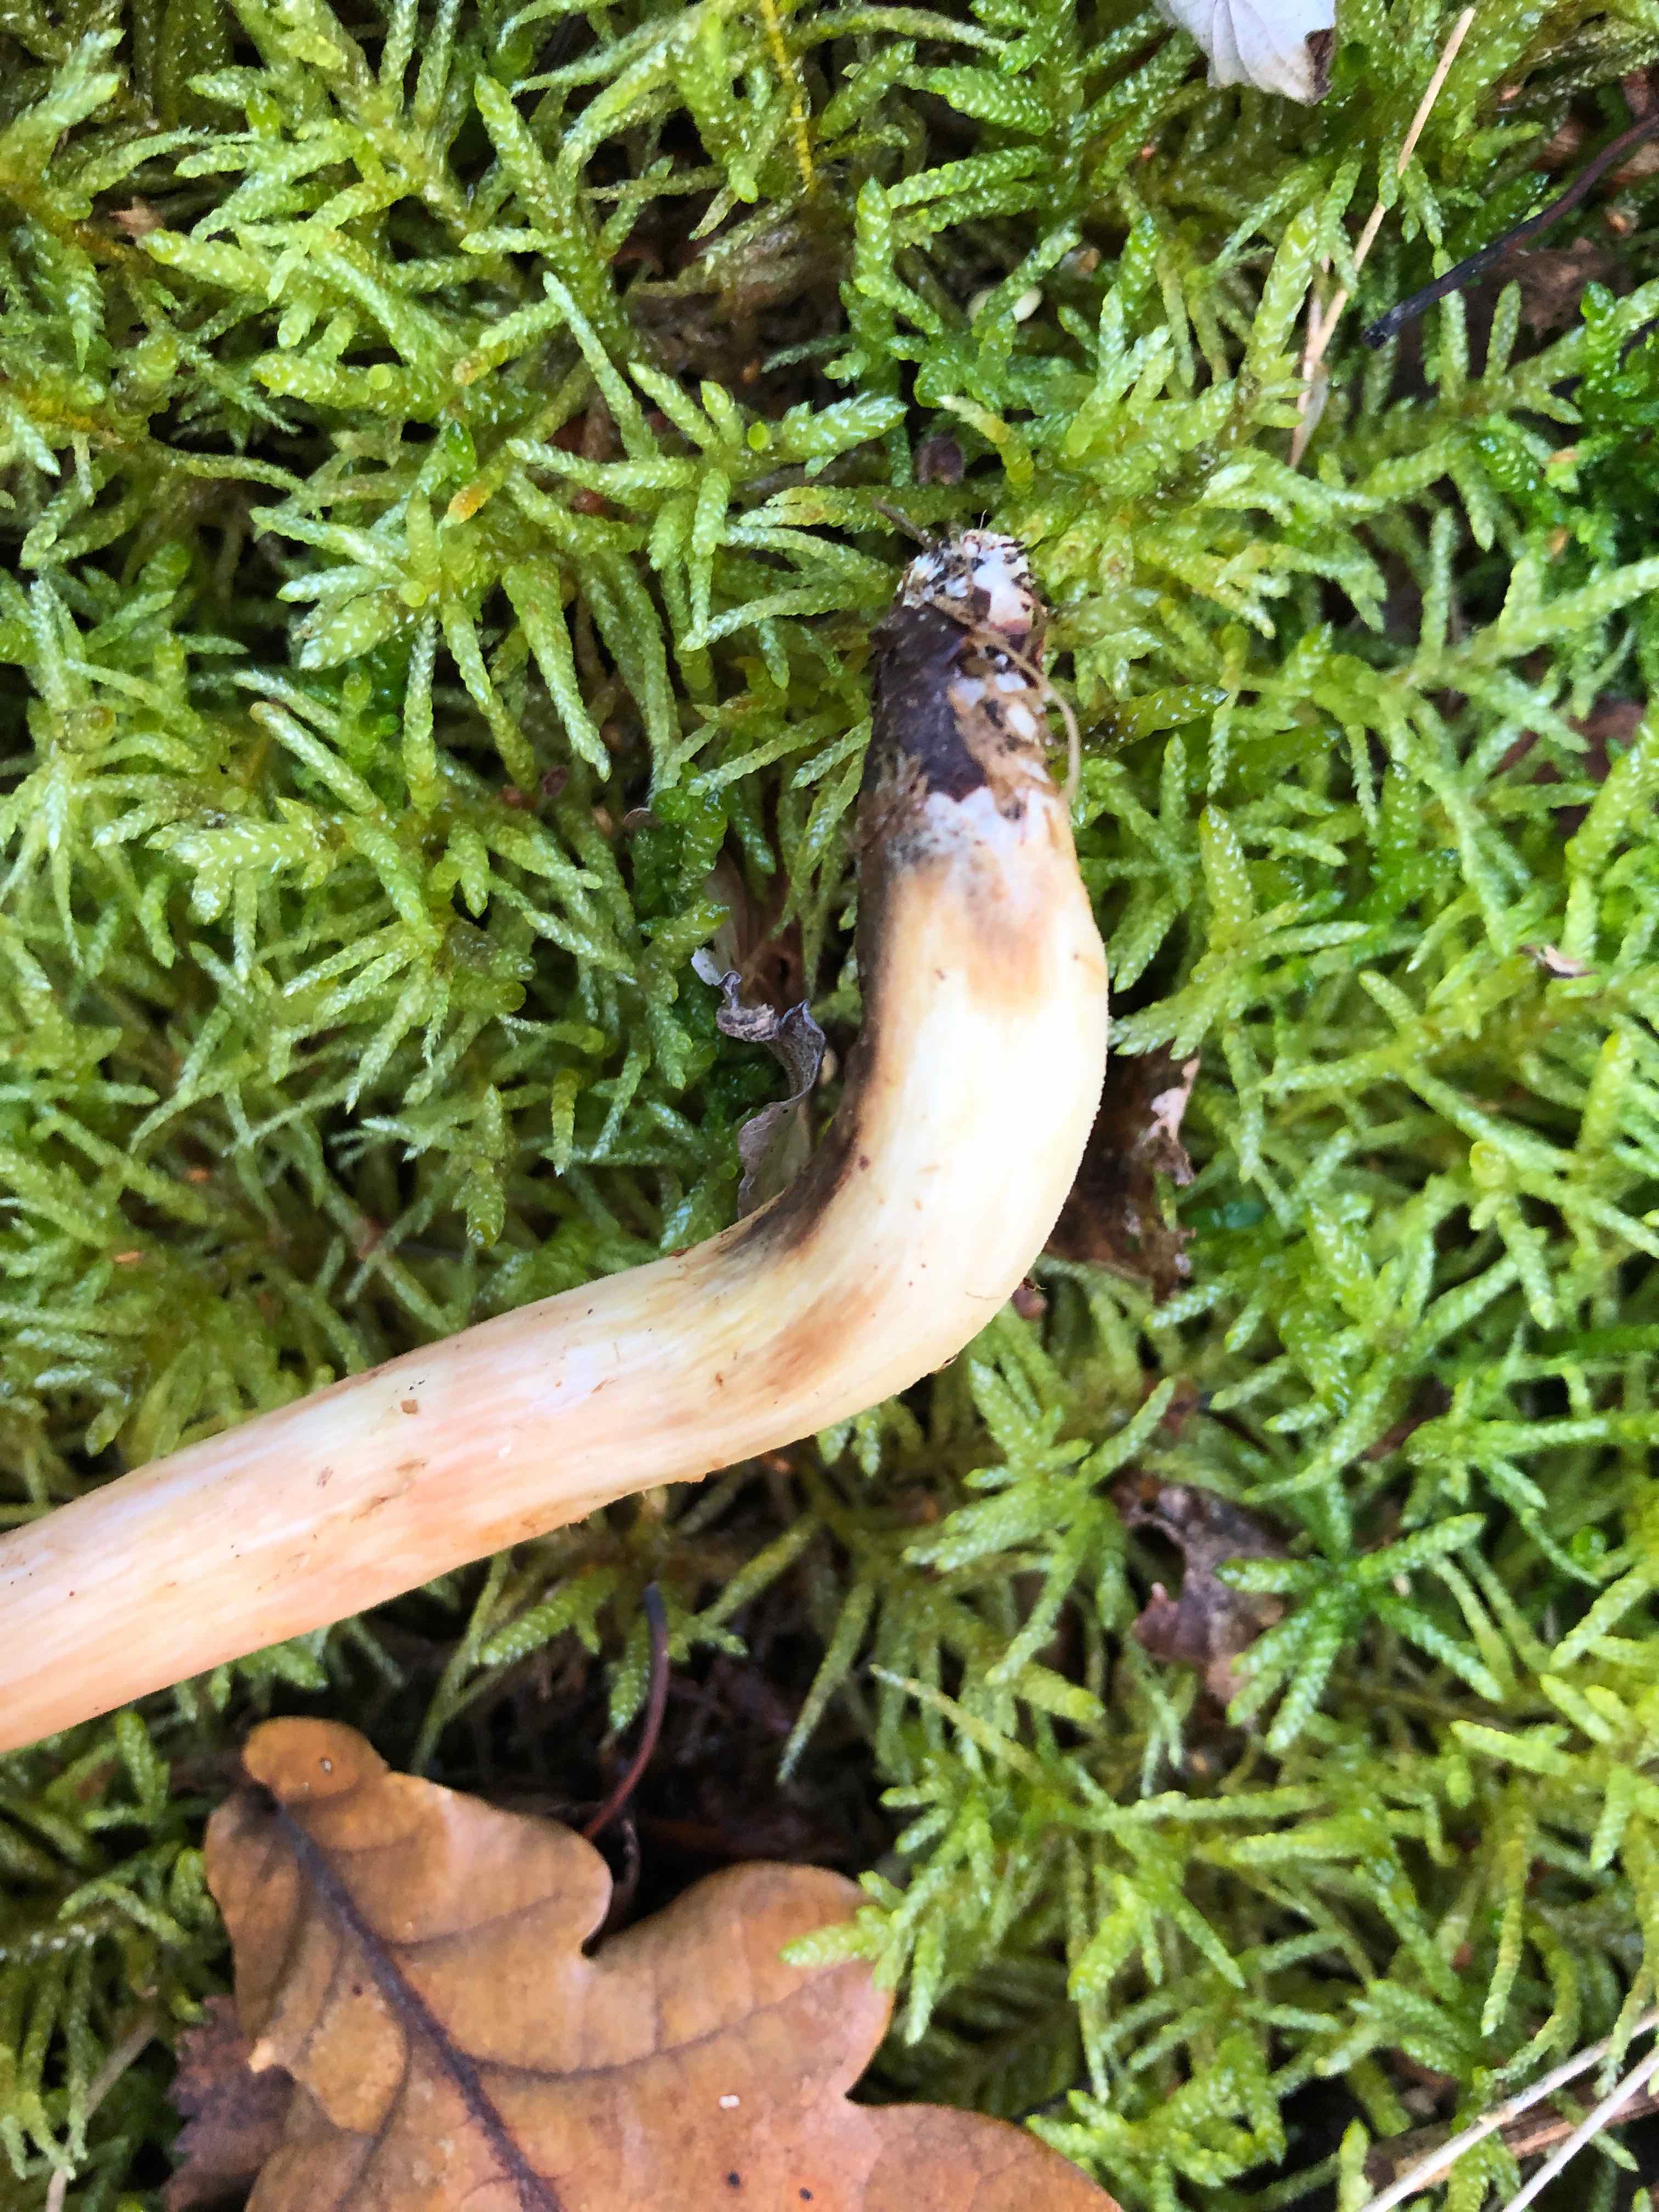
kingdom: Fungi
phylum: Basidiomycota
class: Agaricomycetes
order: Boletales
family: Boletaceae
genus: Xerocomus
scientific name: Xerocomus
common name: filtrørhat
